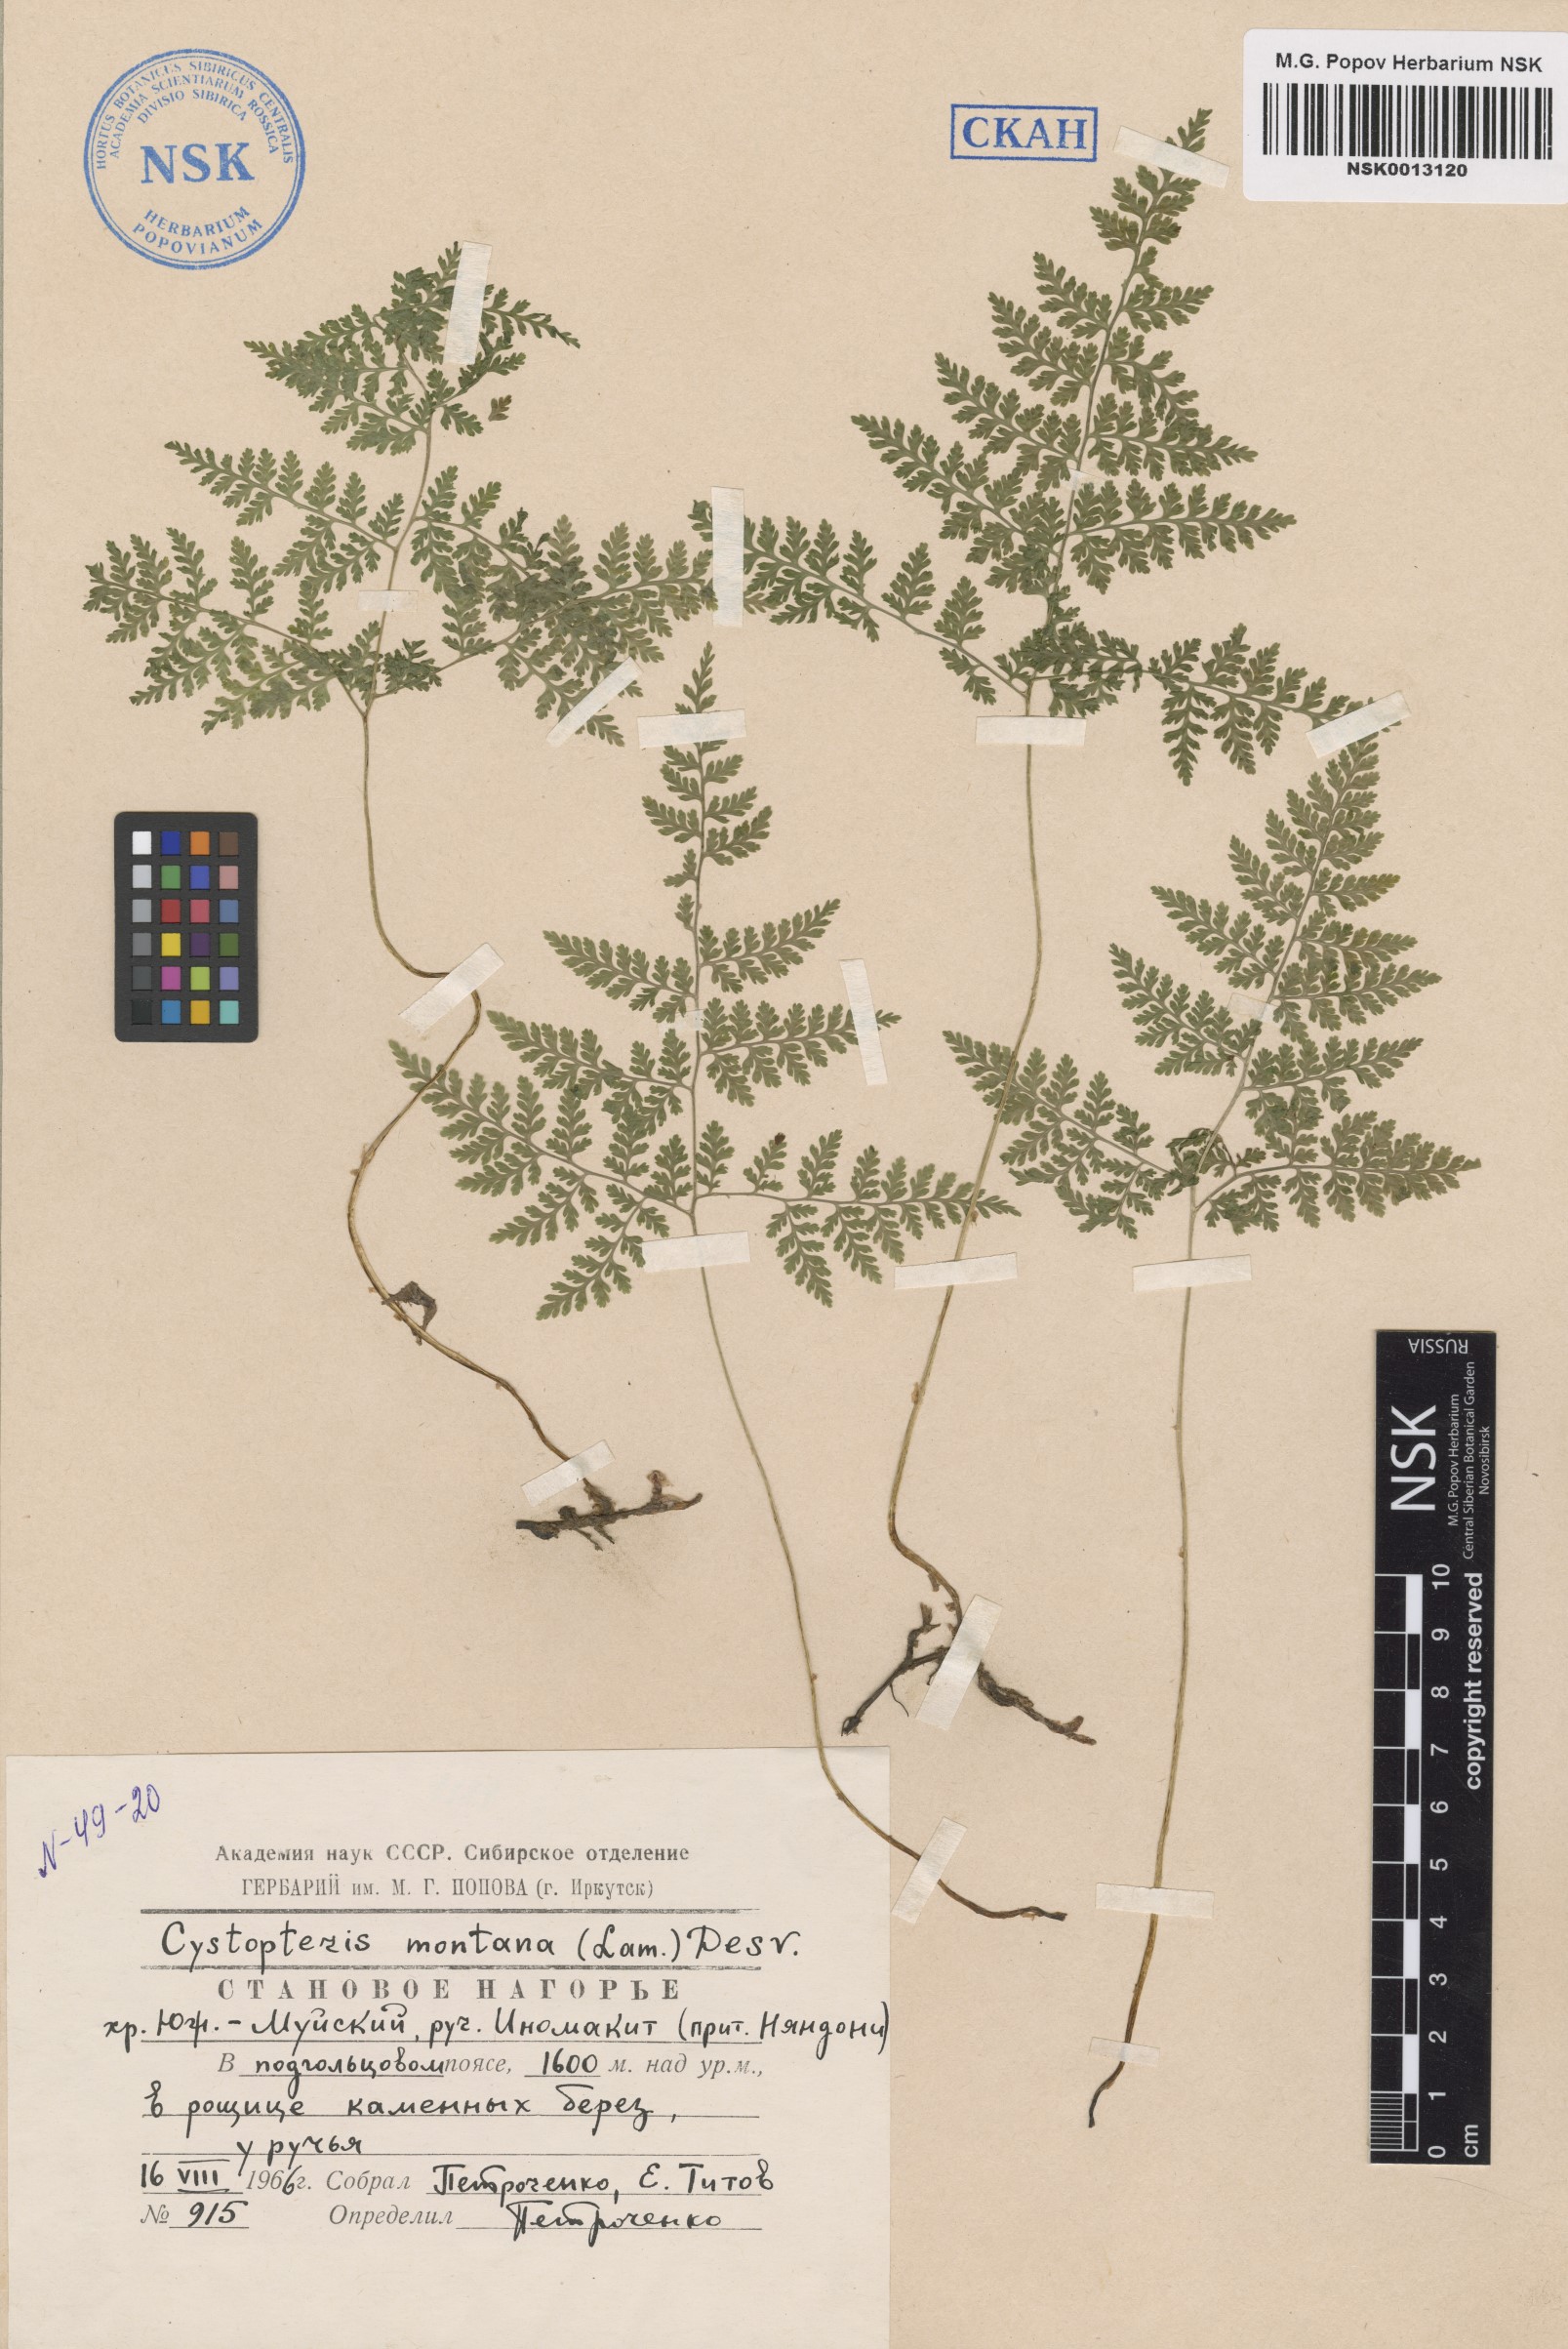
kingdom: Plantae
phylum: Tracheophyta
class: Polypodiopsida
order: Polypodiales
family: Cystopteridaceae
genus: Cystopteris
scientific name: Cystopteris montana
